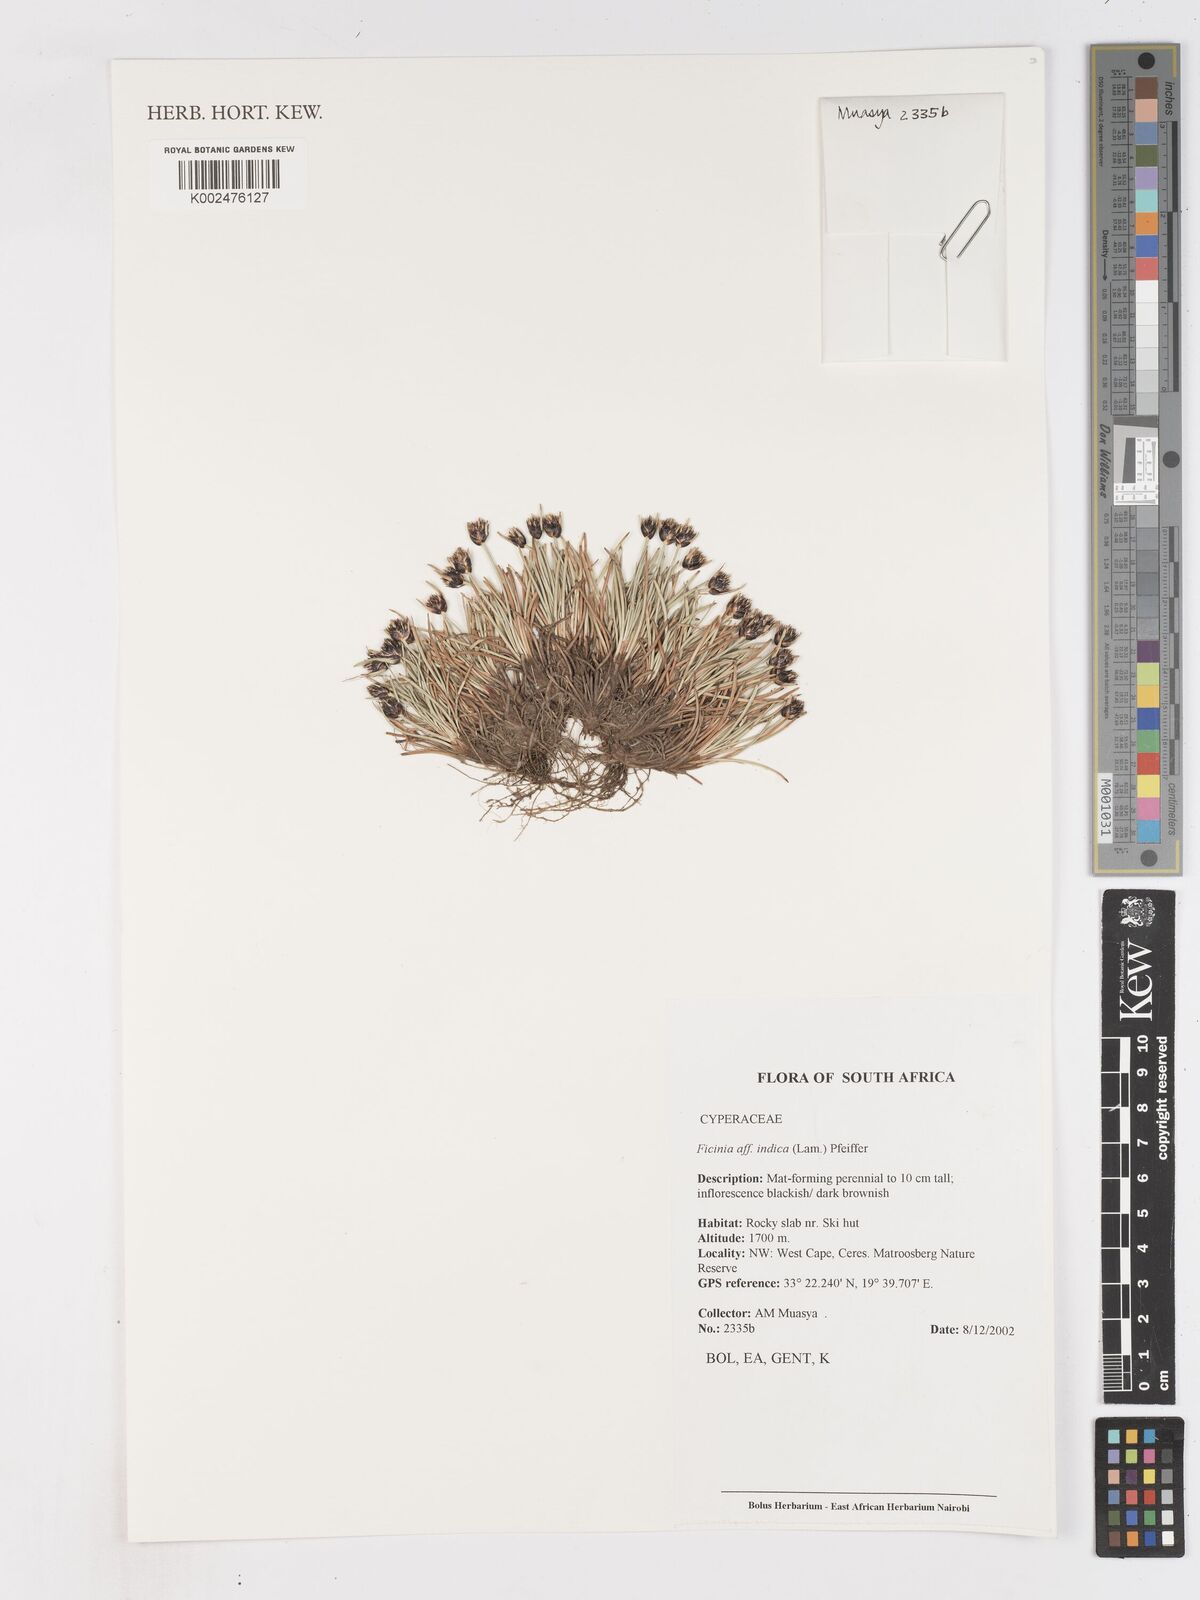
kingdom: Plantae
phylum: Tracheophyta
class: Liliopsida
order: Poales
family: Cyperaceae
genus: Ficinia
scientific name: Ficinia indica
